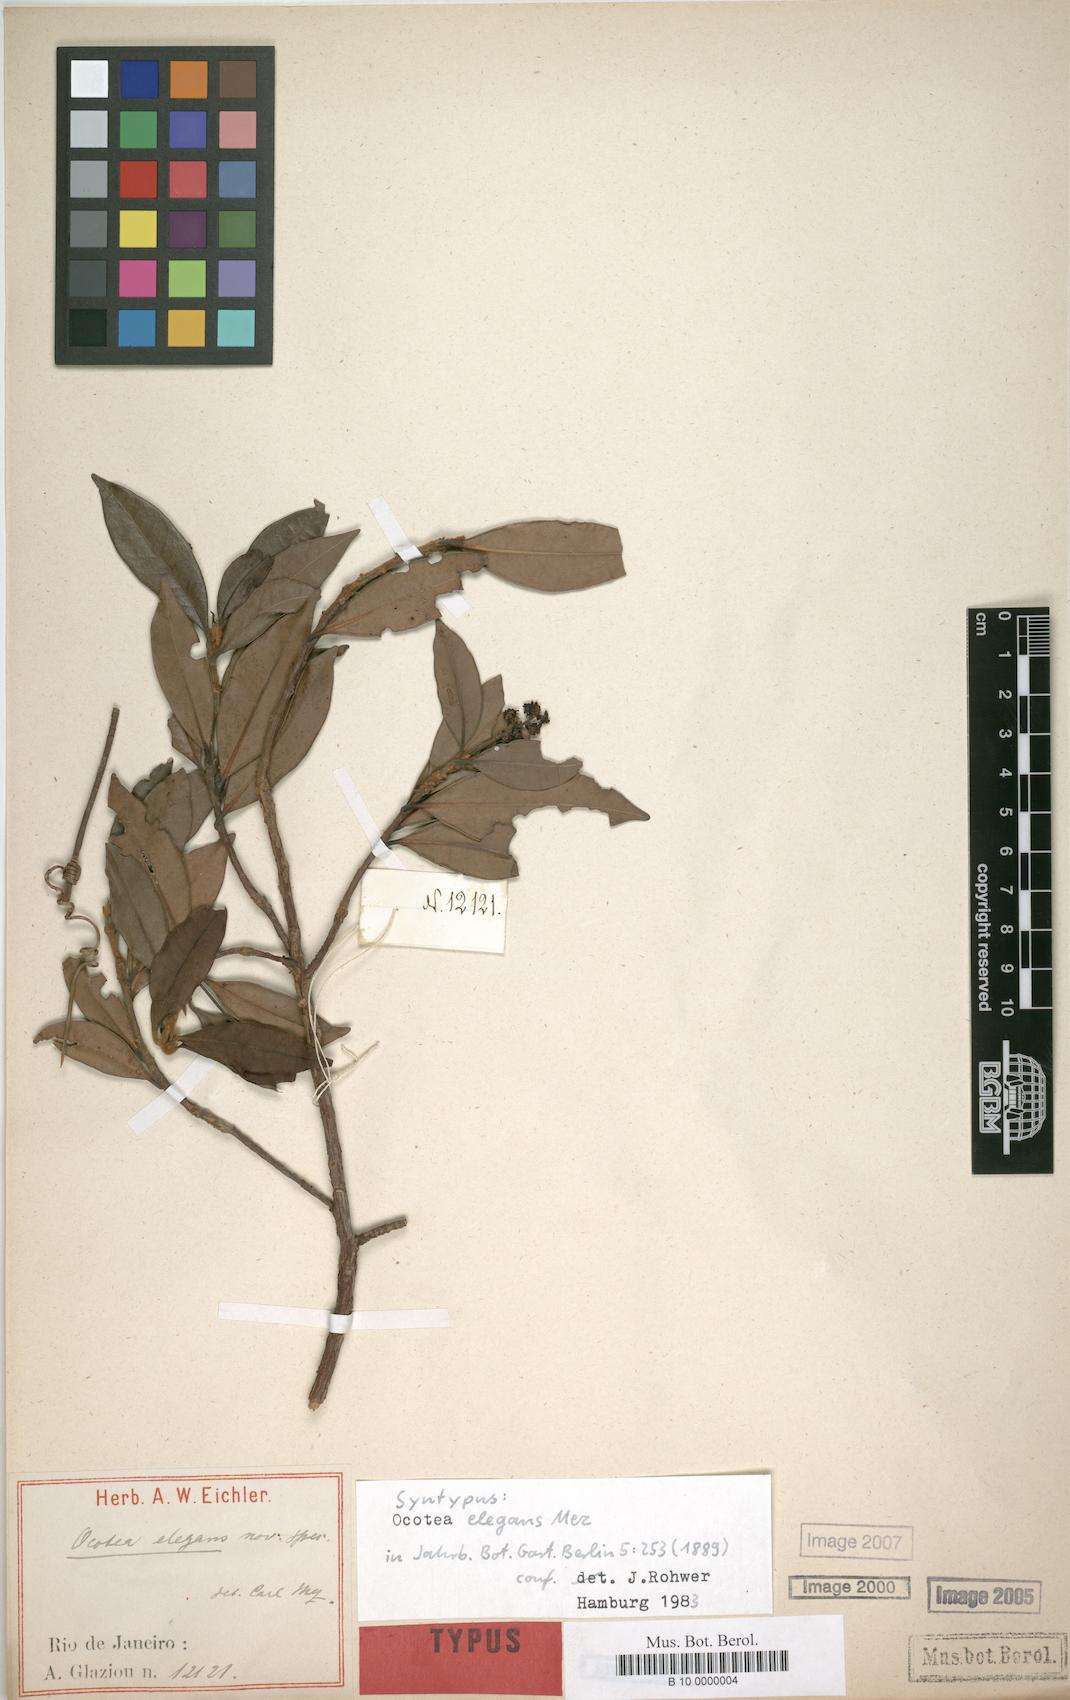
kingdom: Plantae
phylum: Tracheophyta
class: Magnoliopsida
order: Laurales
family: Lauraceae
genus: Ocotea
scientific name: Ocotea elegans
